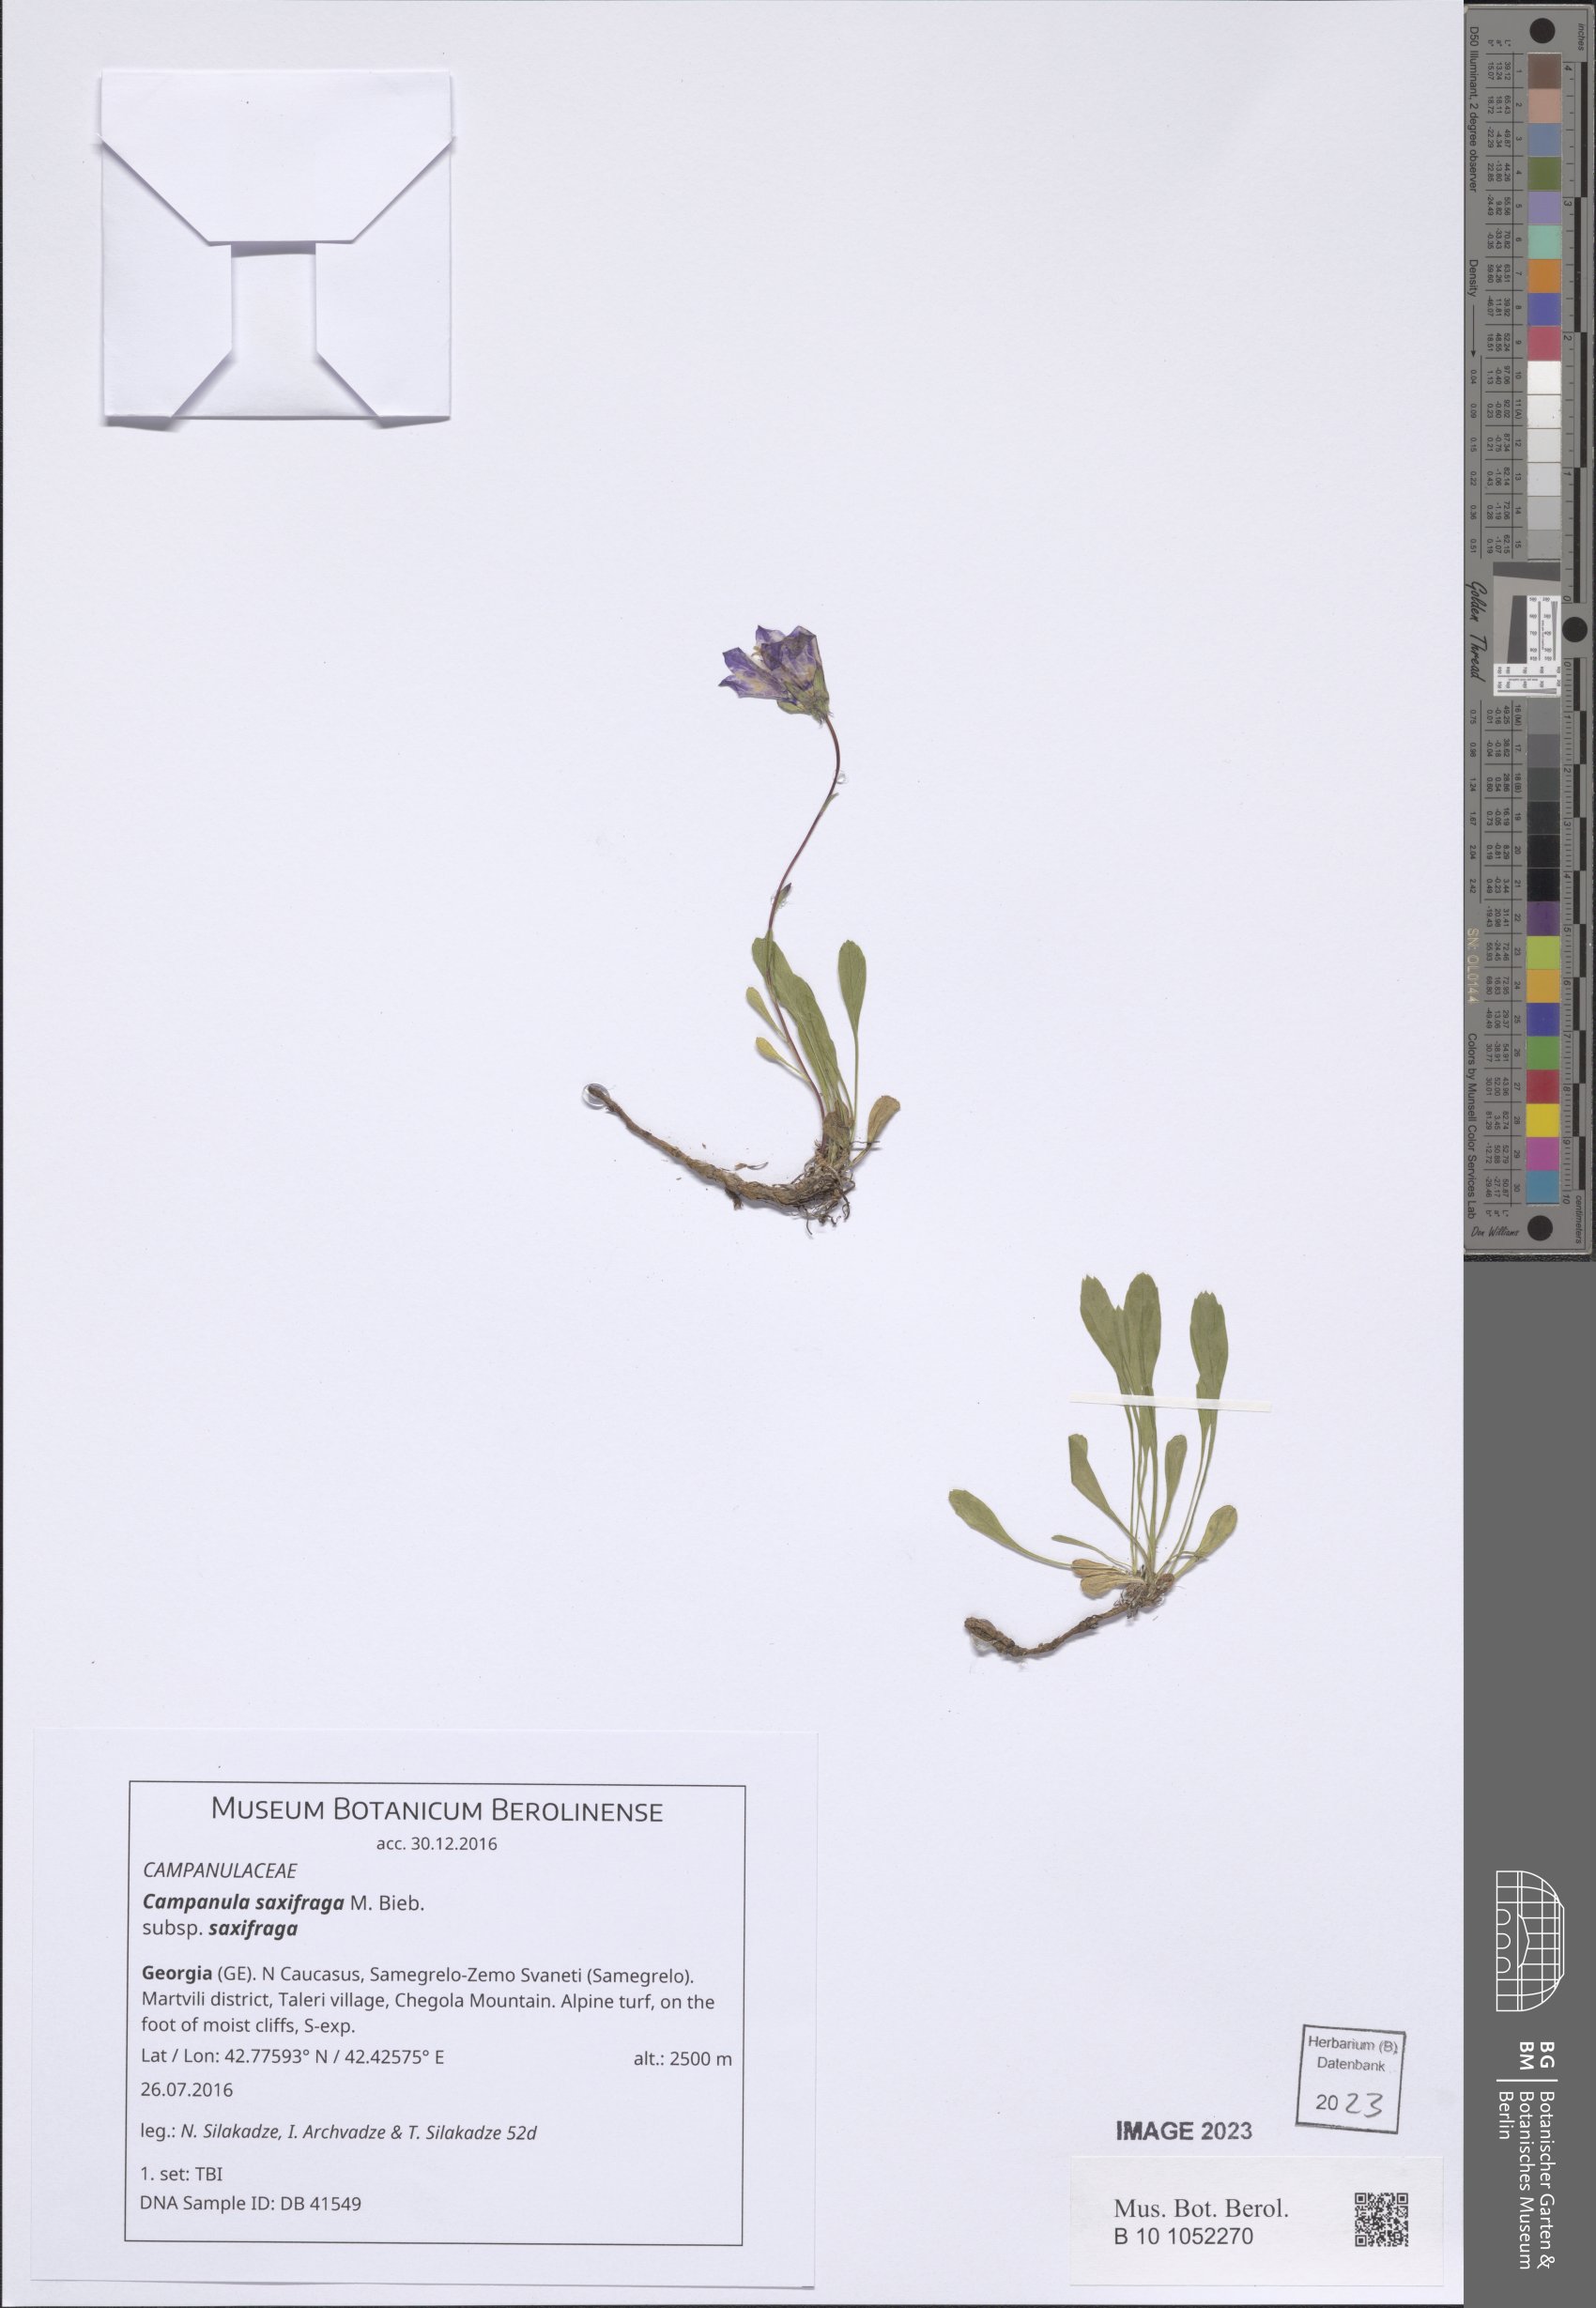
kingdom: Plantae
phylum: Tracheophyta
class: Magnoliopsida
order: Asterales
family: Campanulaceae
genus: Campanula
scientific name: Campanula saxifraga
